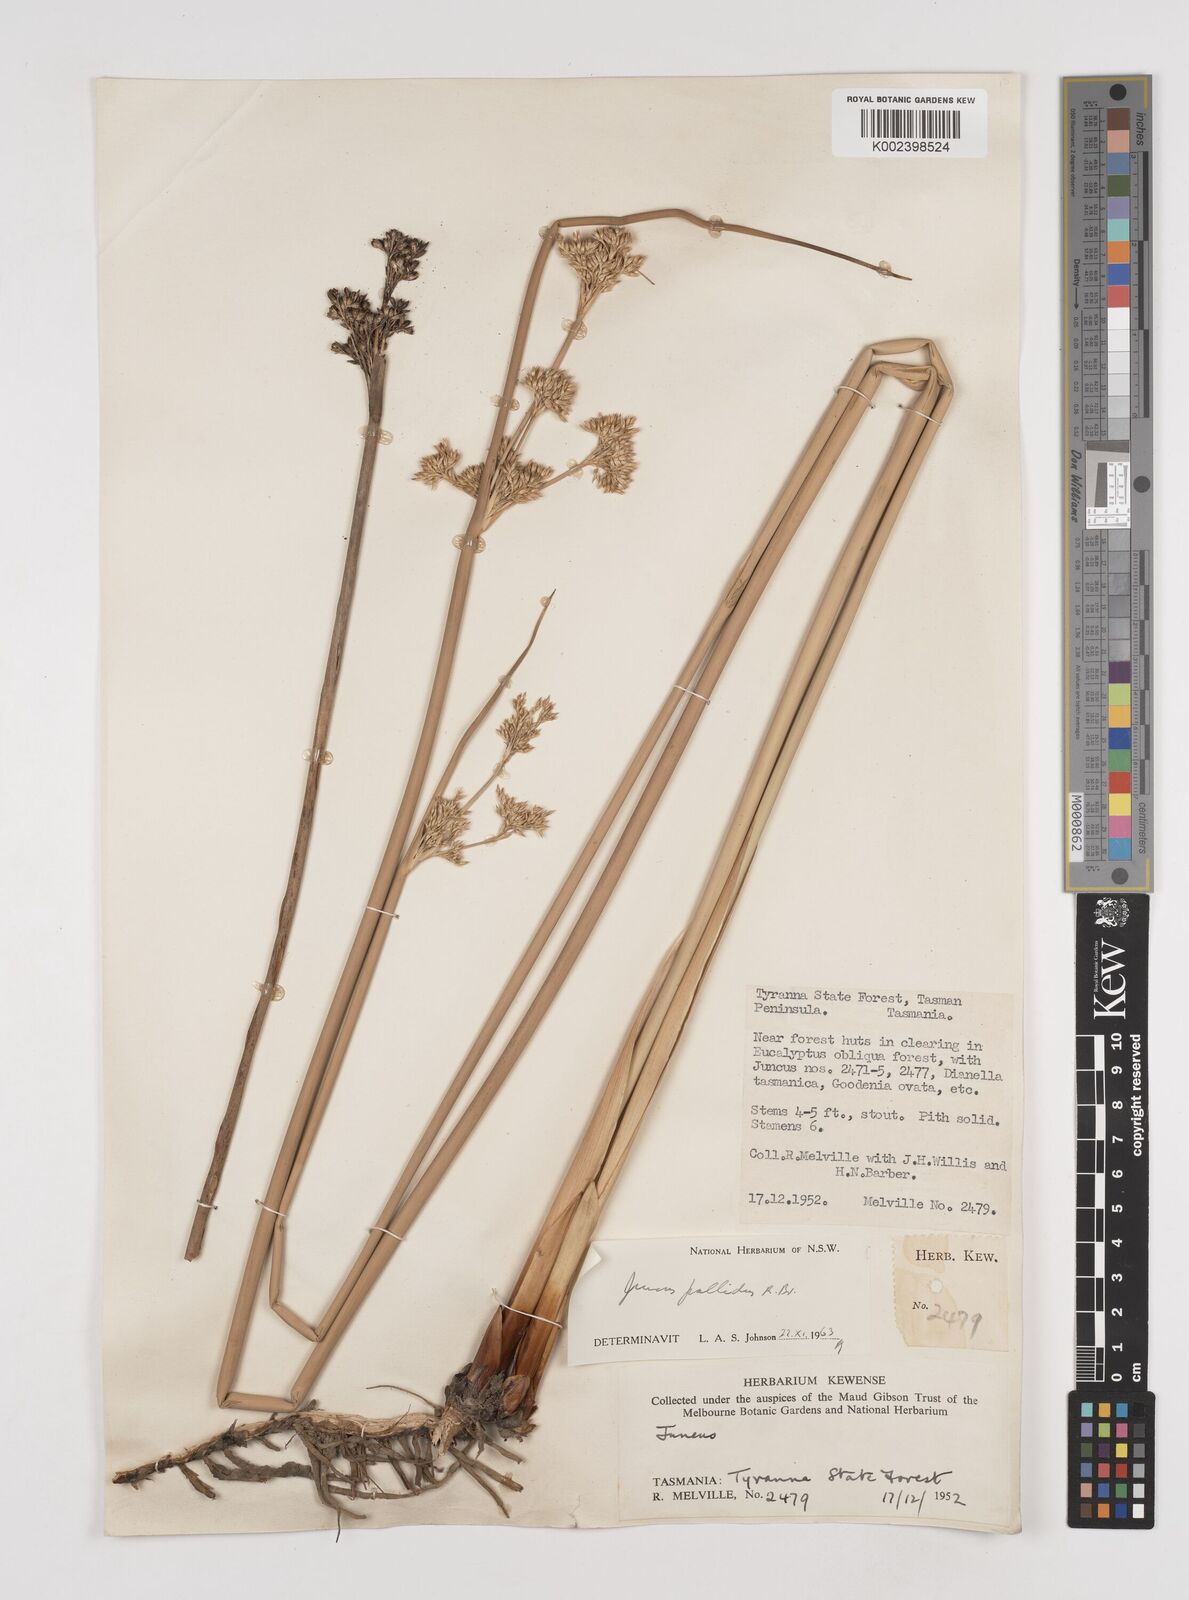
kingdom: Plantae
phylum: Tracheophyta
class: Liliopsida
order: Poales
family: Juncaceae
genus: Juncus
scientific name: Juncus pallidus
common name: Great soft-rush
